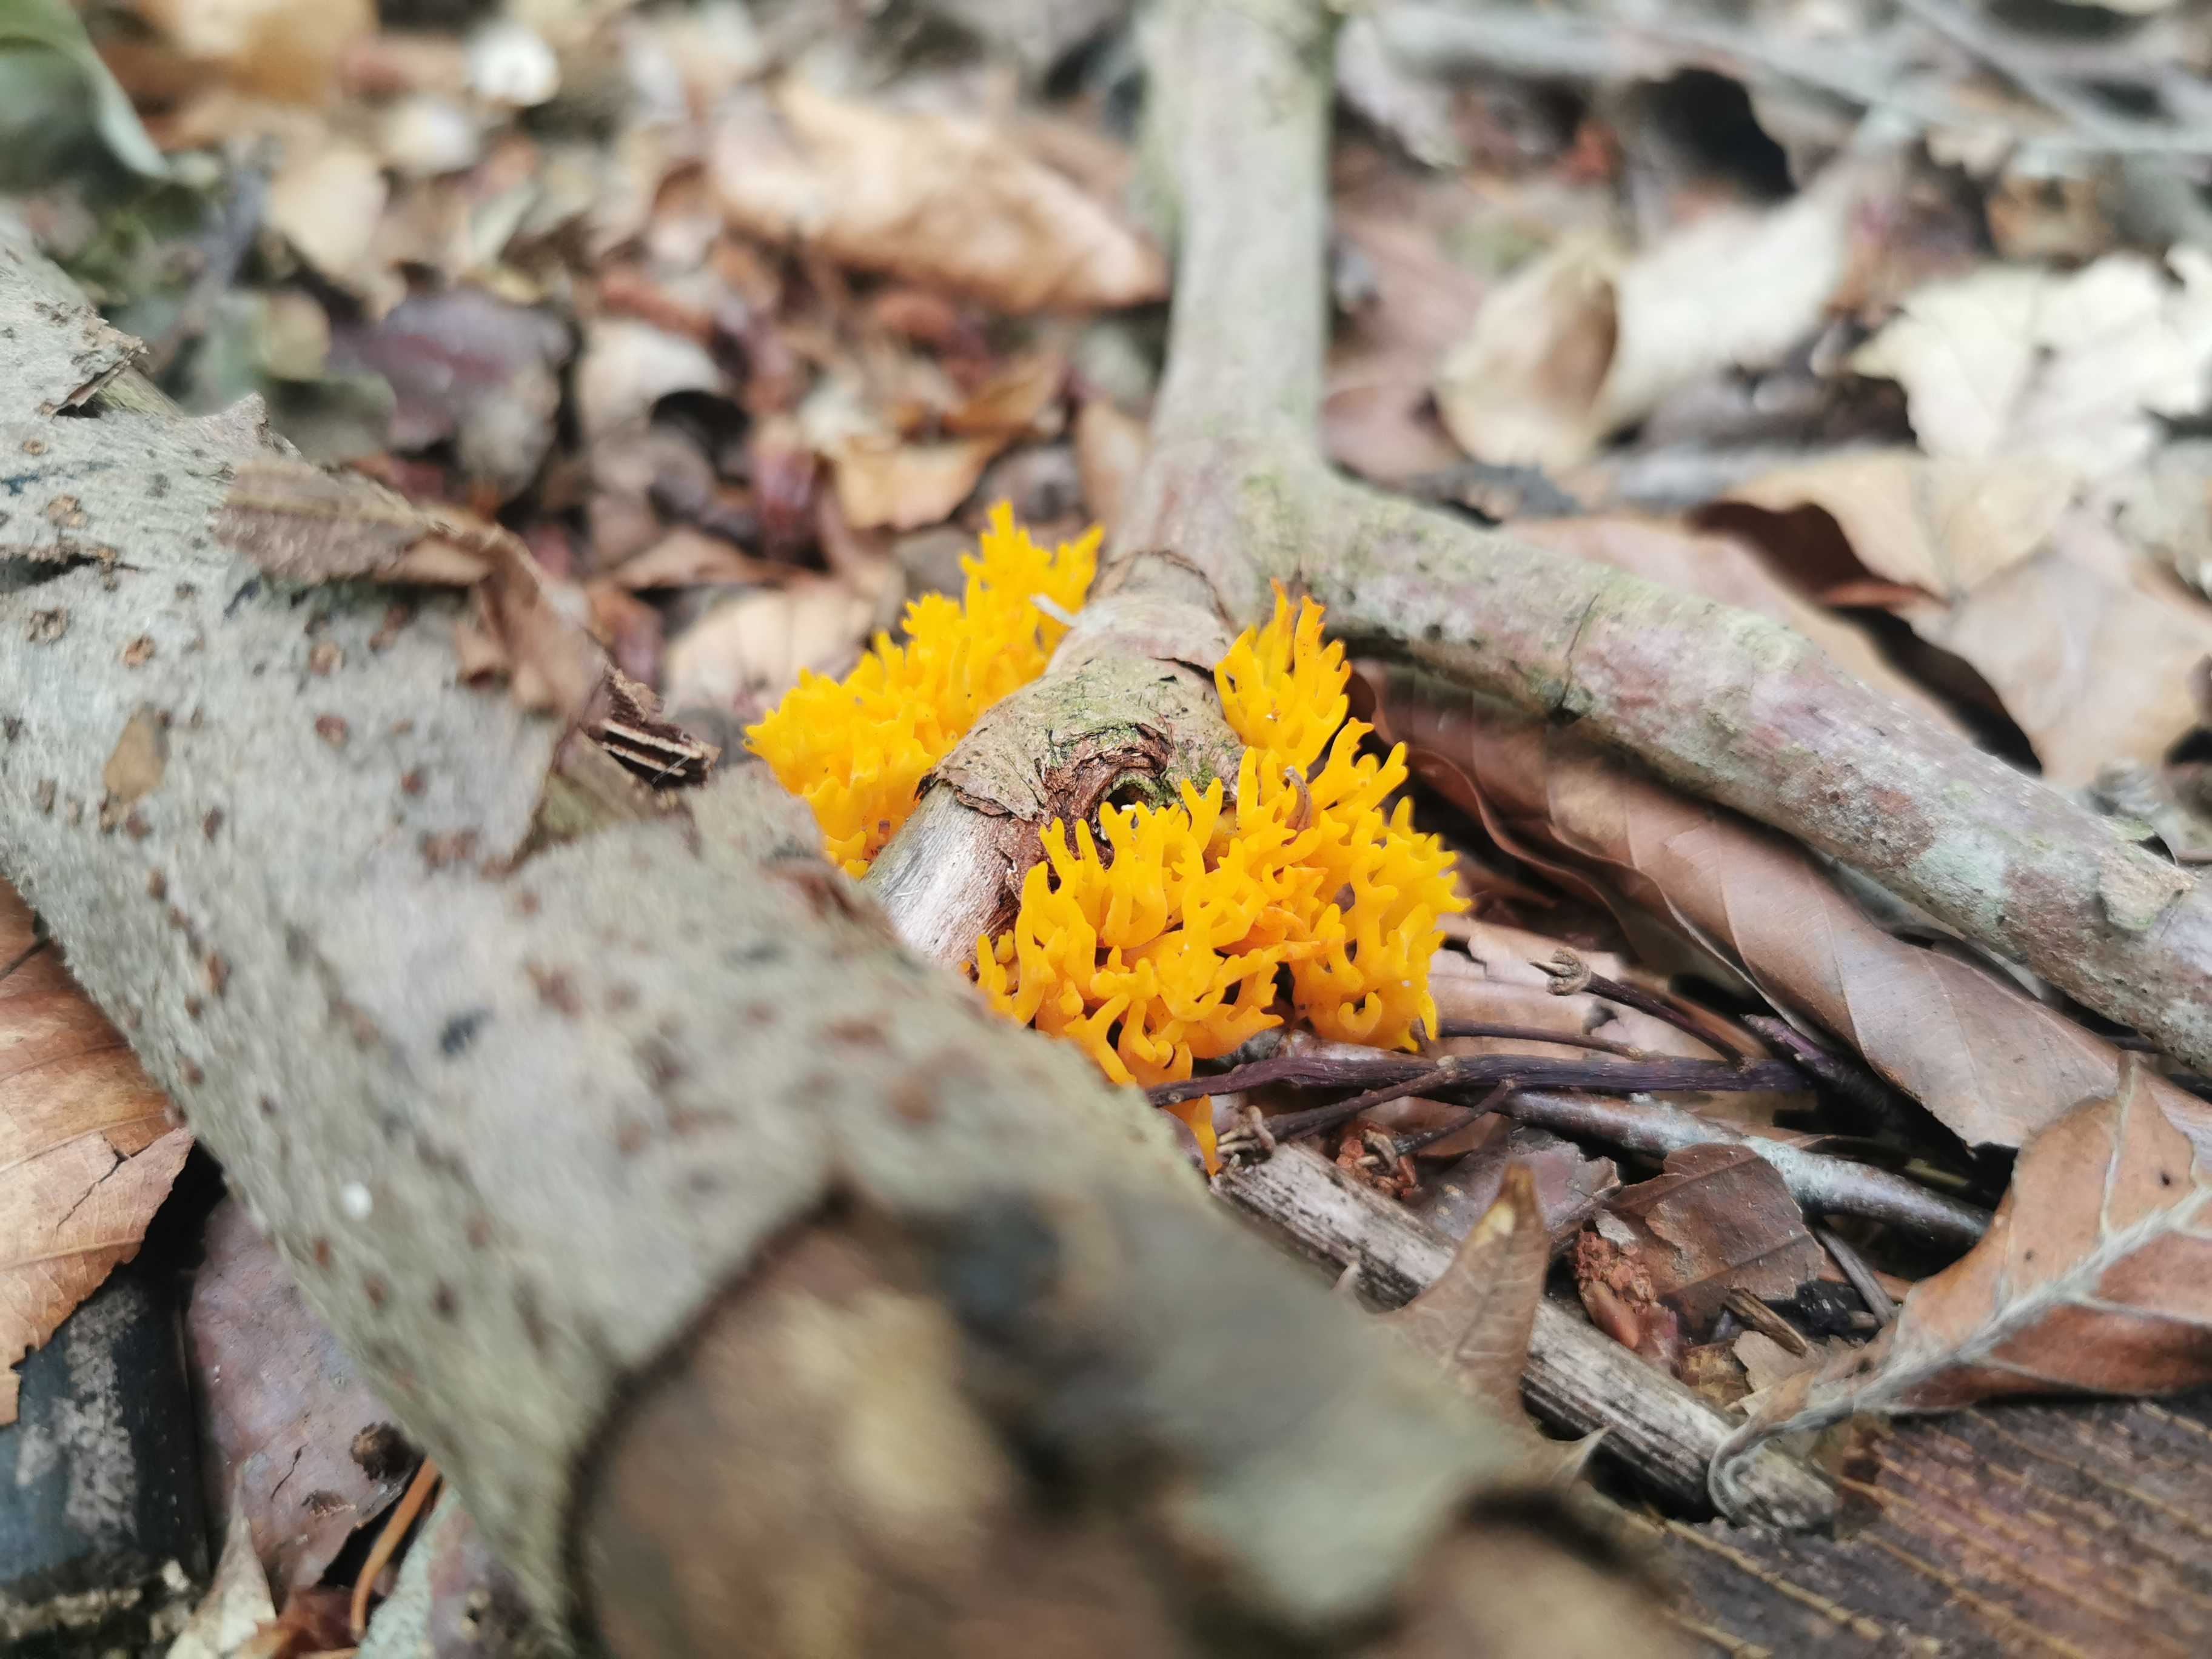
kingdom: Fungi
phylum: Basidiomycota
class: Dacrymycetes
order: Dacrymycetales
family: Dacrymycetaceae
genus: Calocera
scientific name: Calocera viscosa
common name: almindelig guldgaffel
